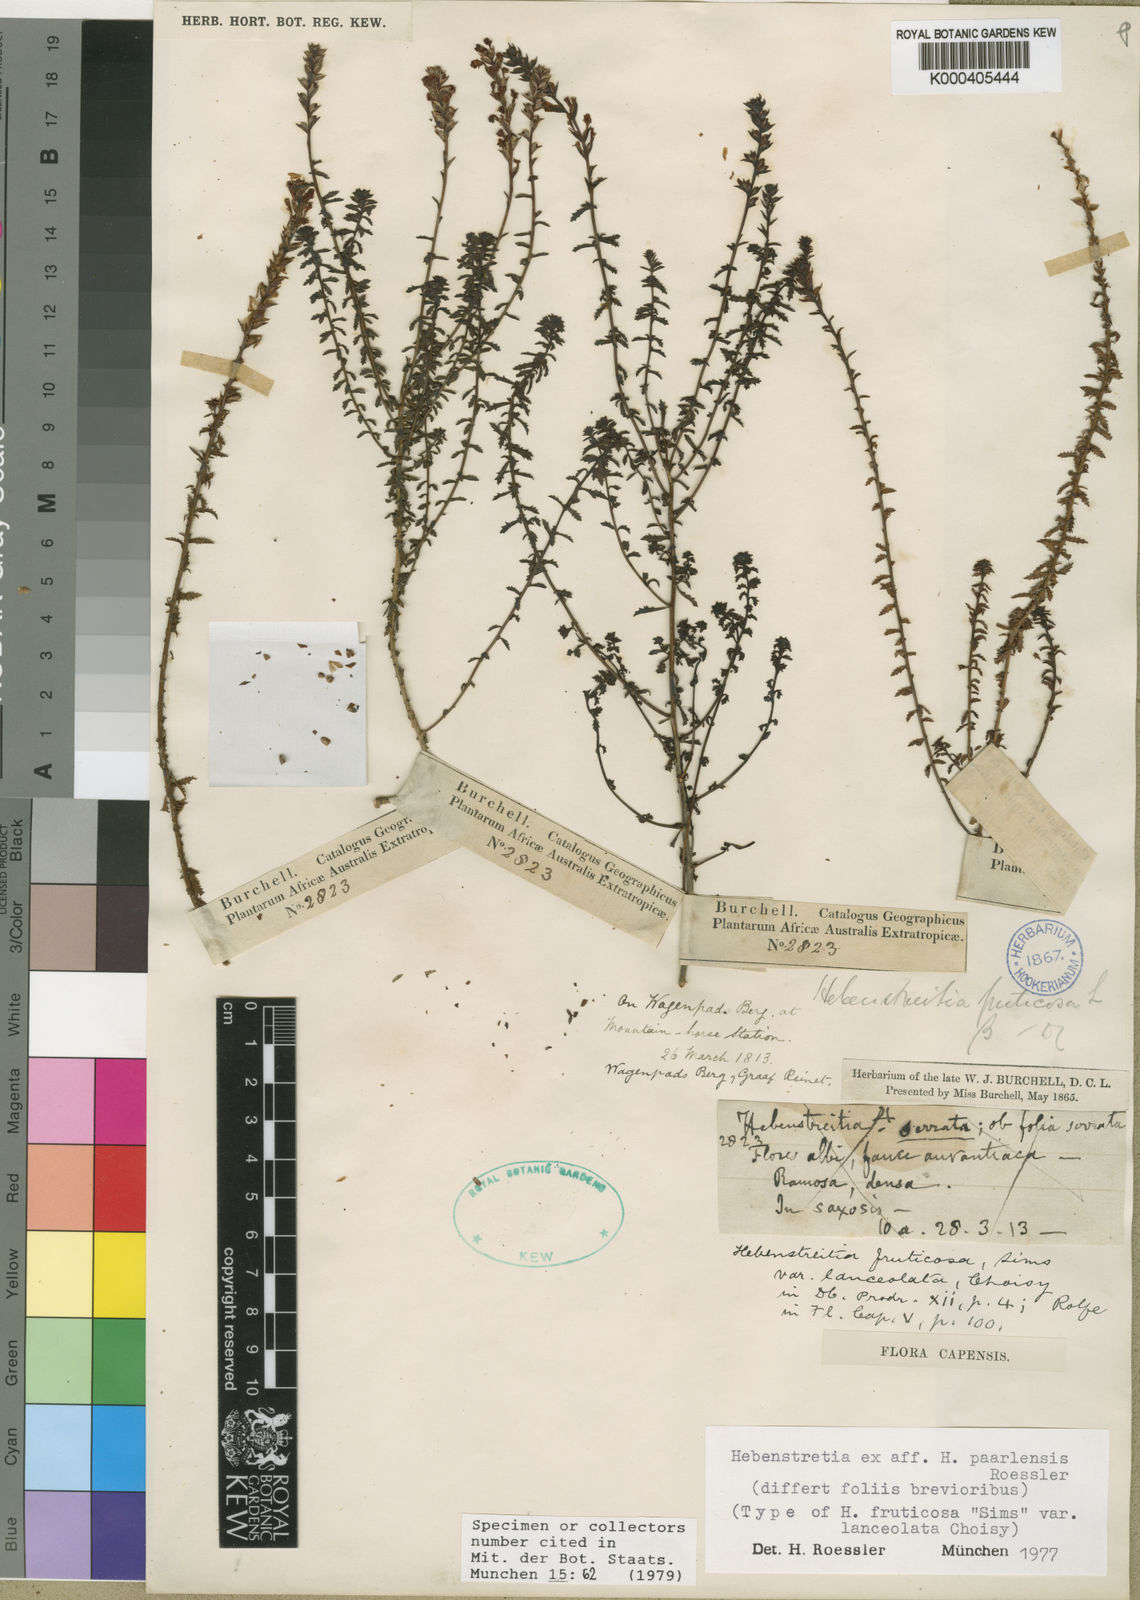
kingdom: Plantae
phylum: Tracheophyta
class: Magnoliopsida
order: Lamiales
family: Scrophulariaceae
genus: Hebenstretia
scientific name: Hebenstretia paarlensis
